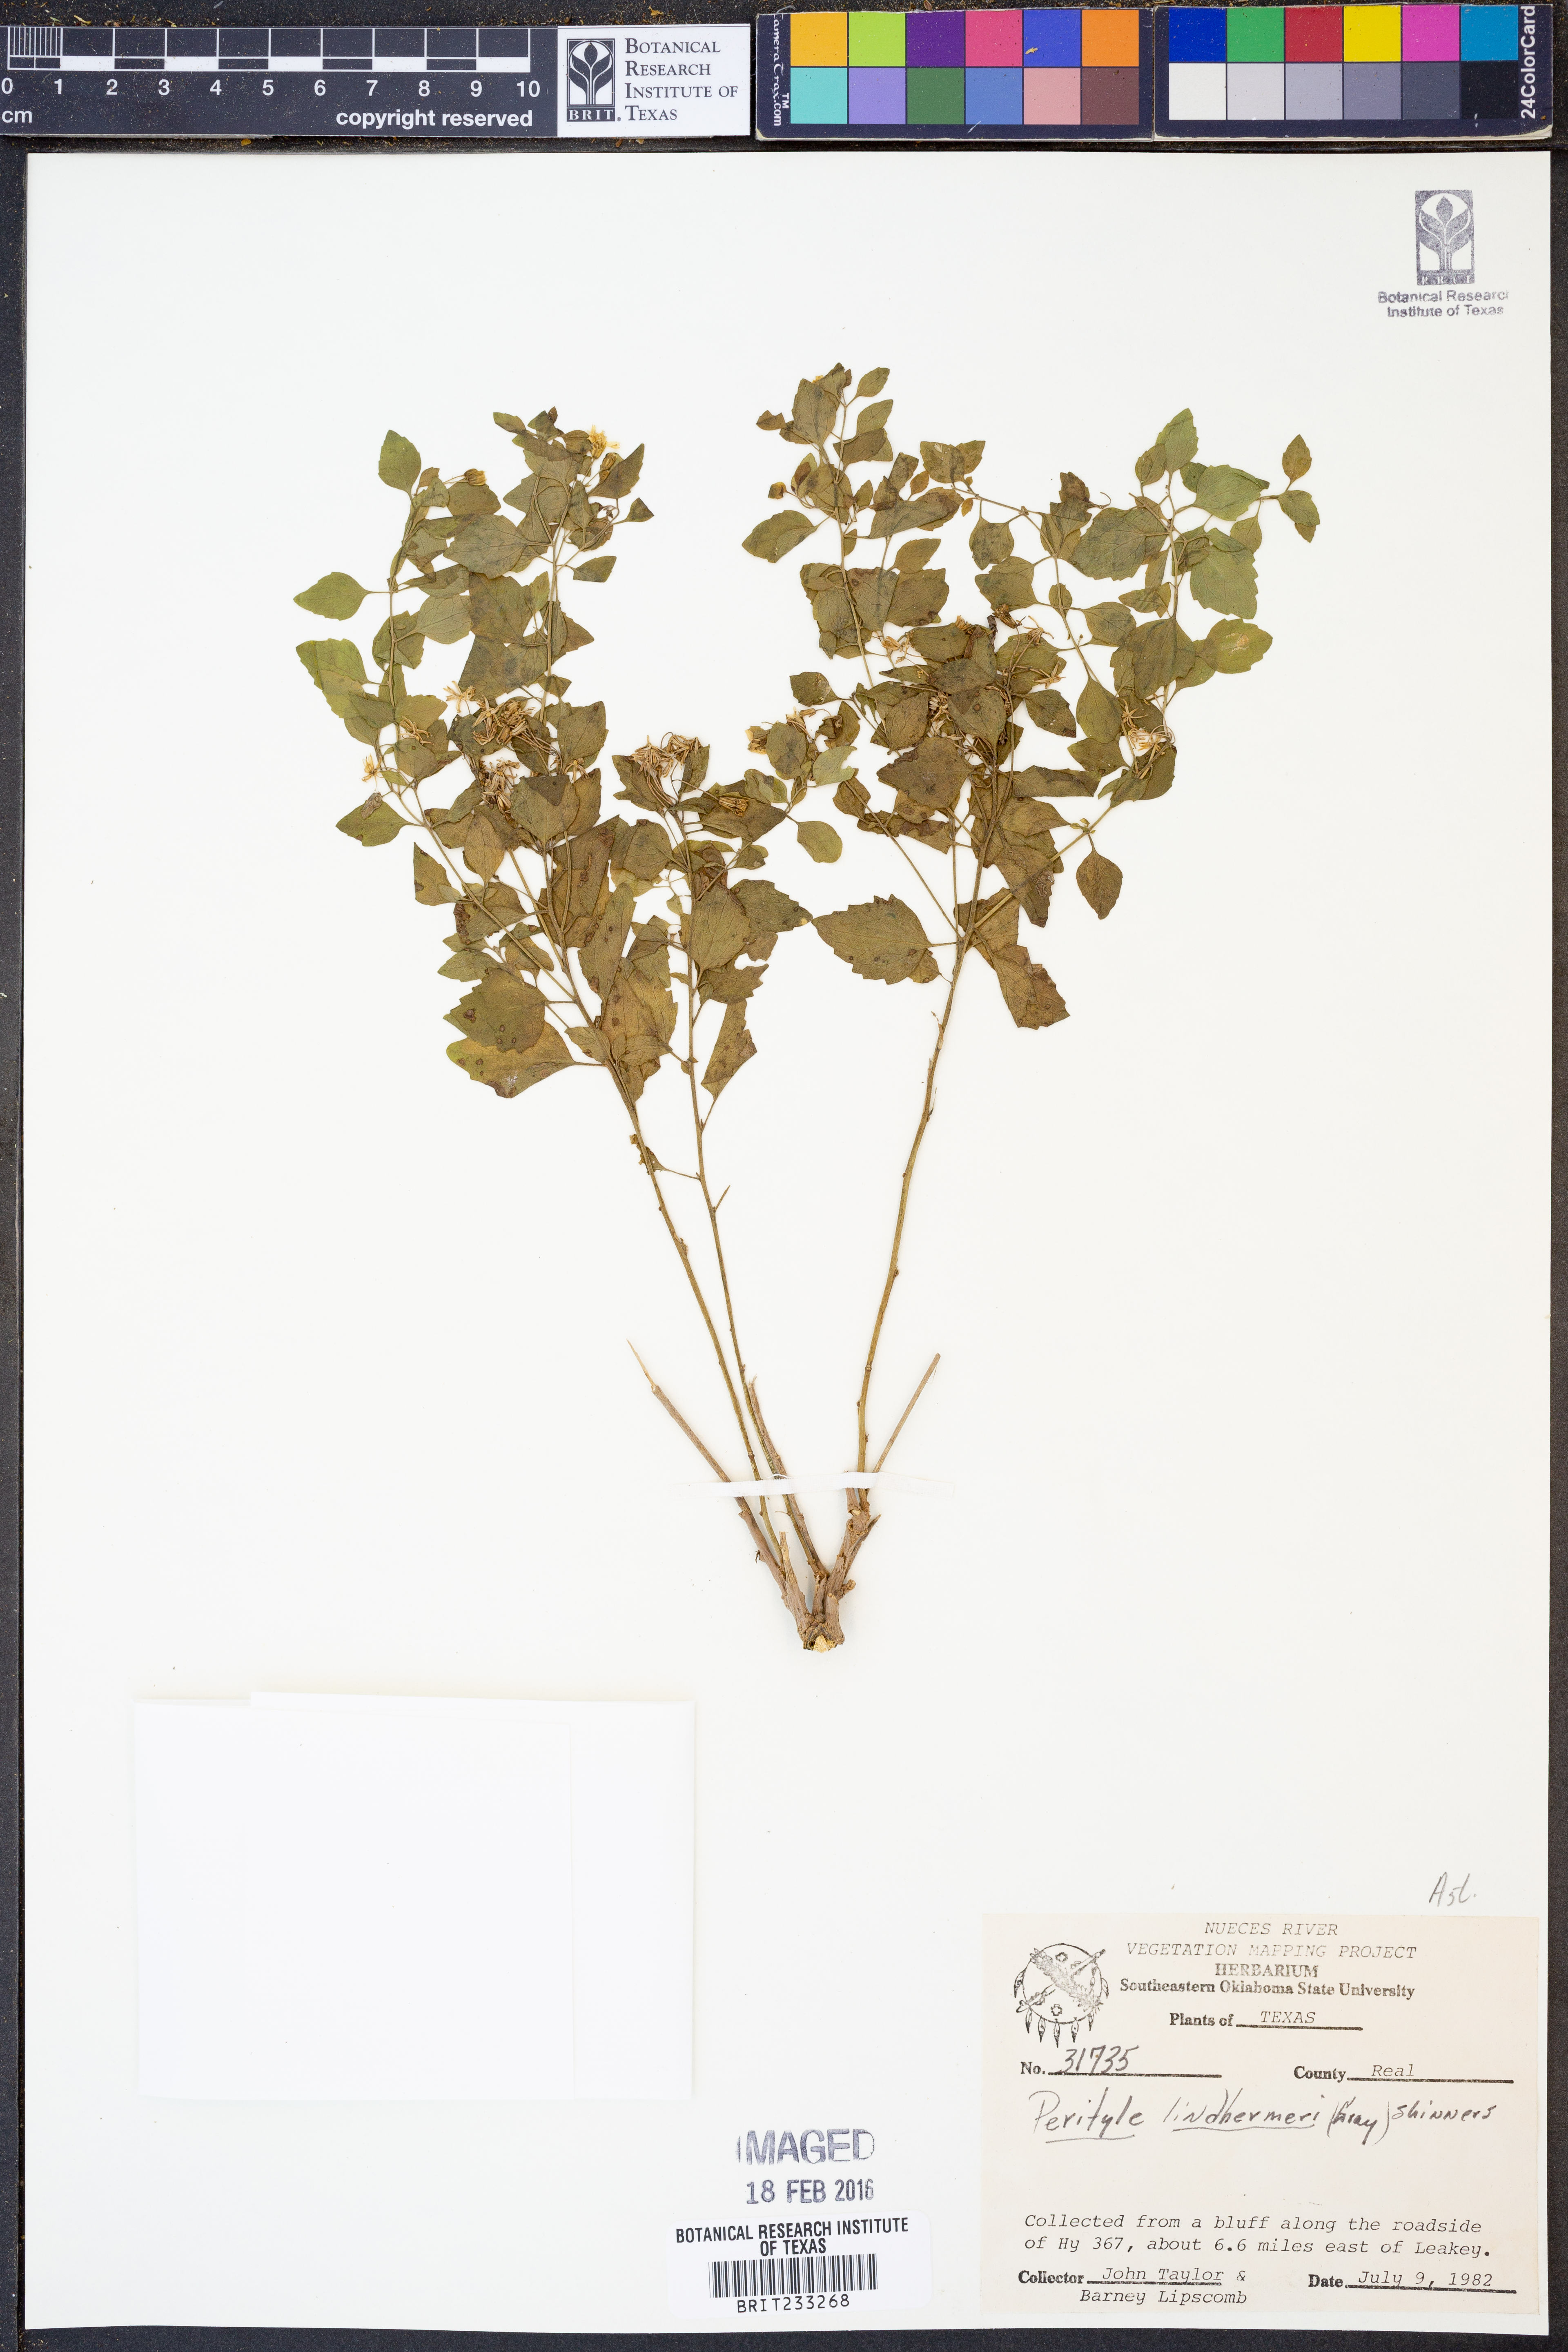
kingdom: Plantae
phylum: Tracheophyta
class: Magnoliopsida
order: Asterales
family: Asteraceae
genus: Laphamia
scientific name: Laphamia lindheimeri
